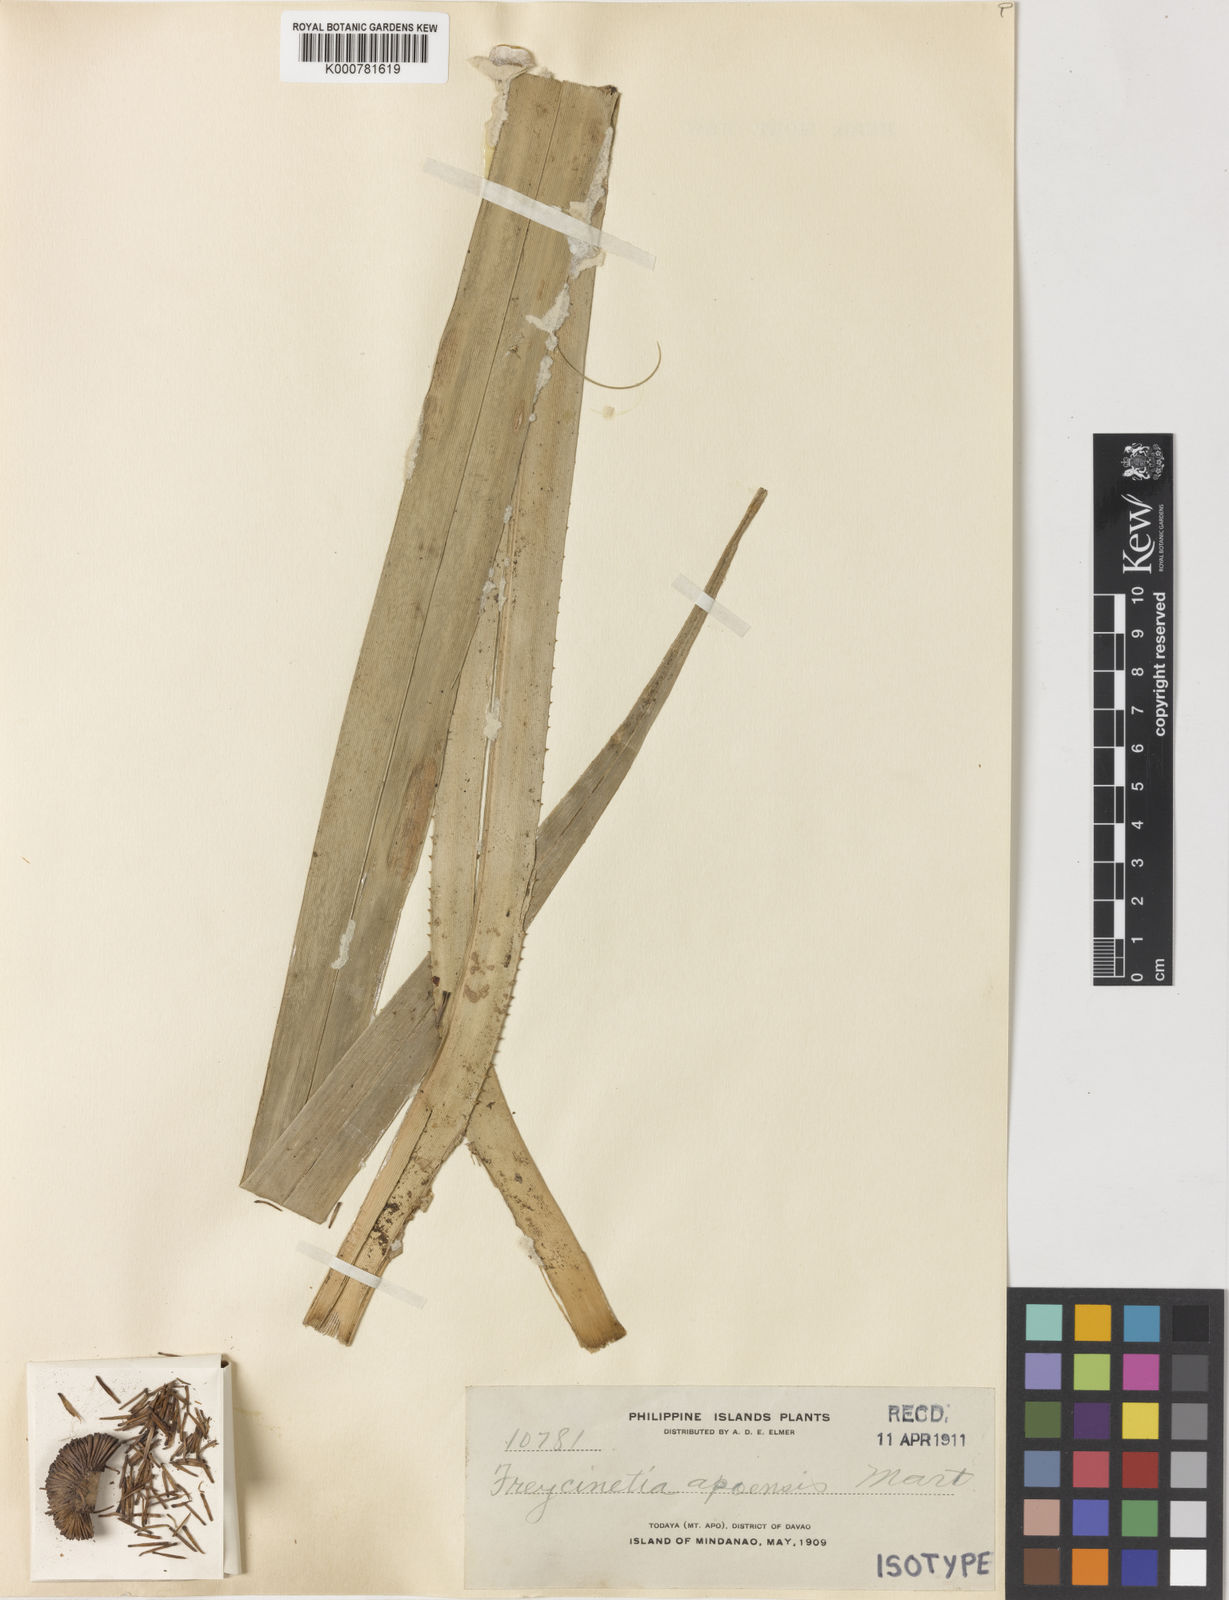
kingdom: Plantae
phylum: Tracheophyta
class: Liliopsida
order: Pandanales
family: Pandanaceae
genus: Freycinetia
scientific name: Freycinetia apoensis
